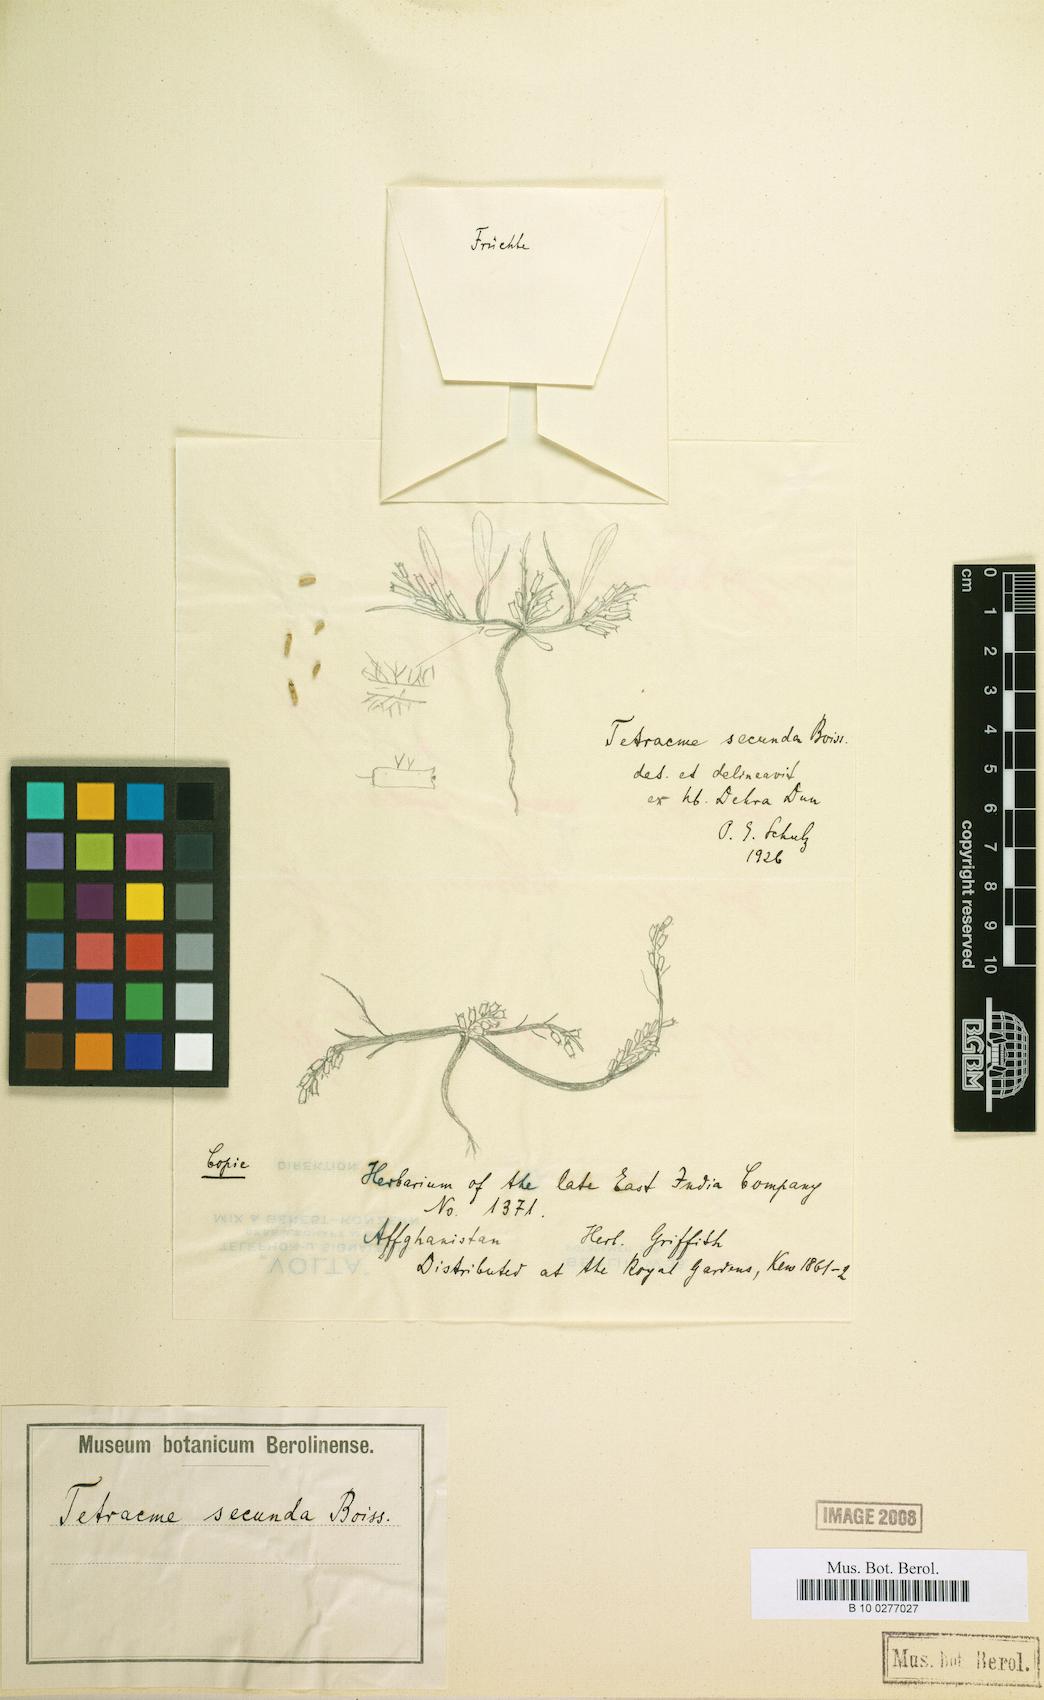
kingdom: Plantae
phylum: Tracheophyta
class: Magnoliopsida
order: Brassicales
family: Brassicaceae
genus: Tetracme
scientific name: Tetracme secunda
